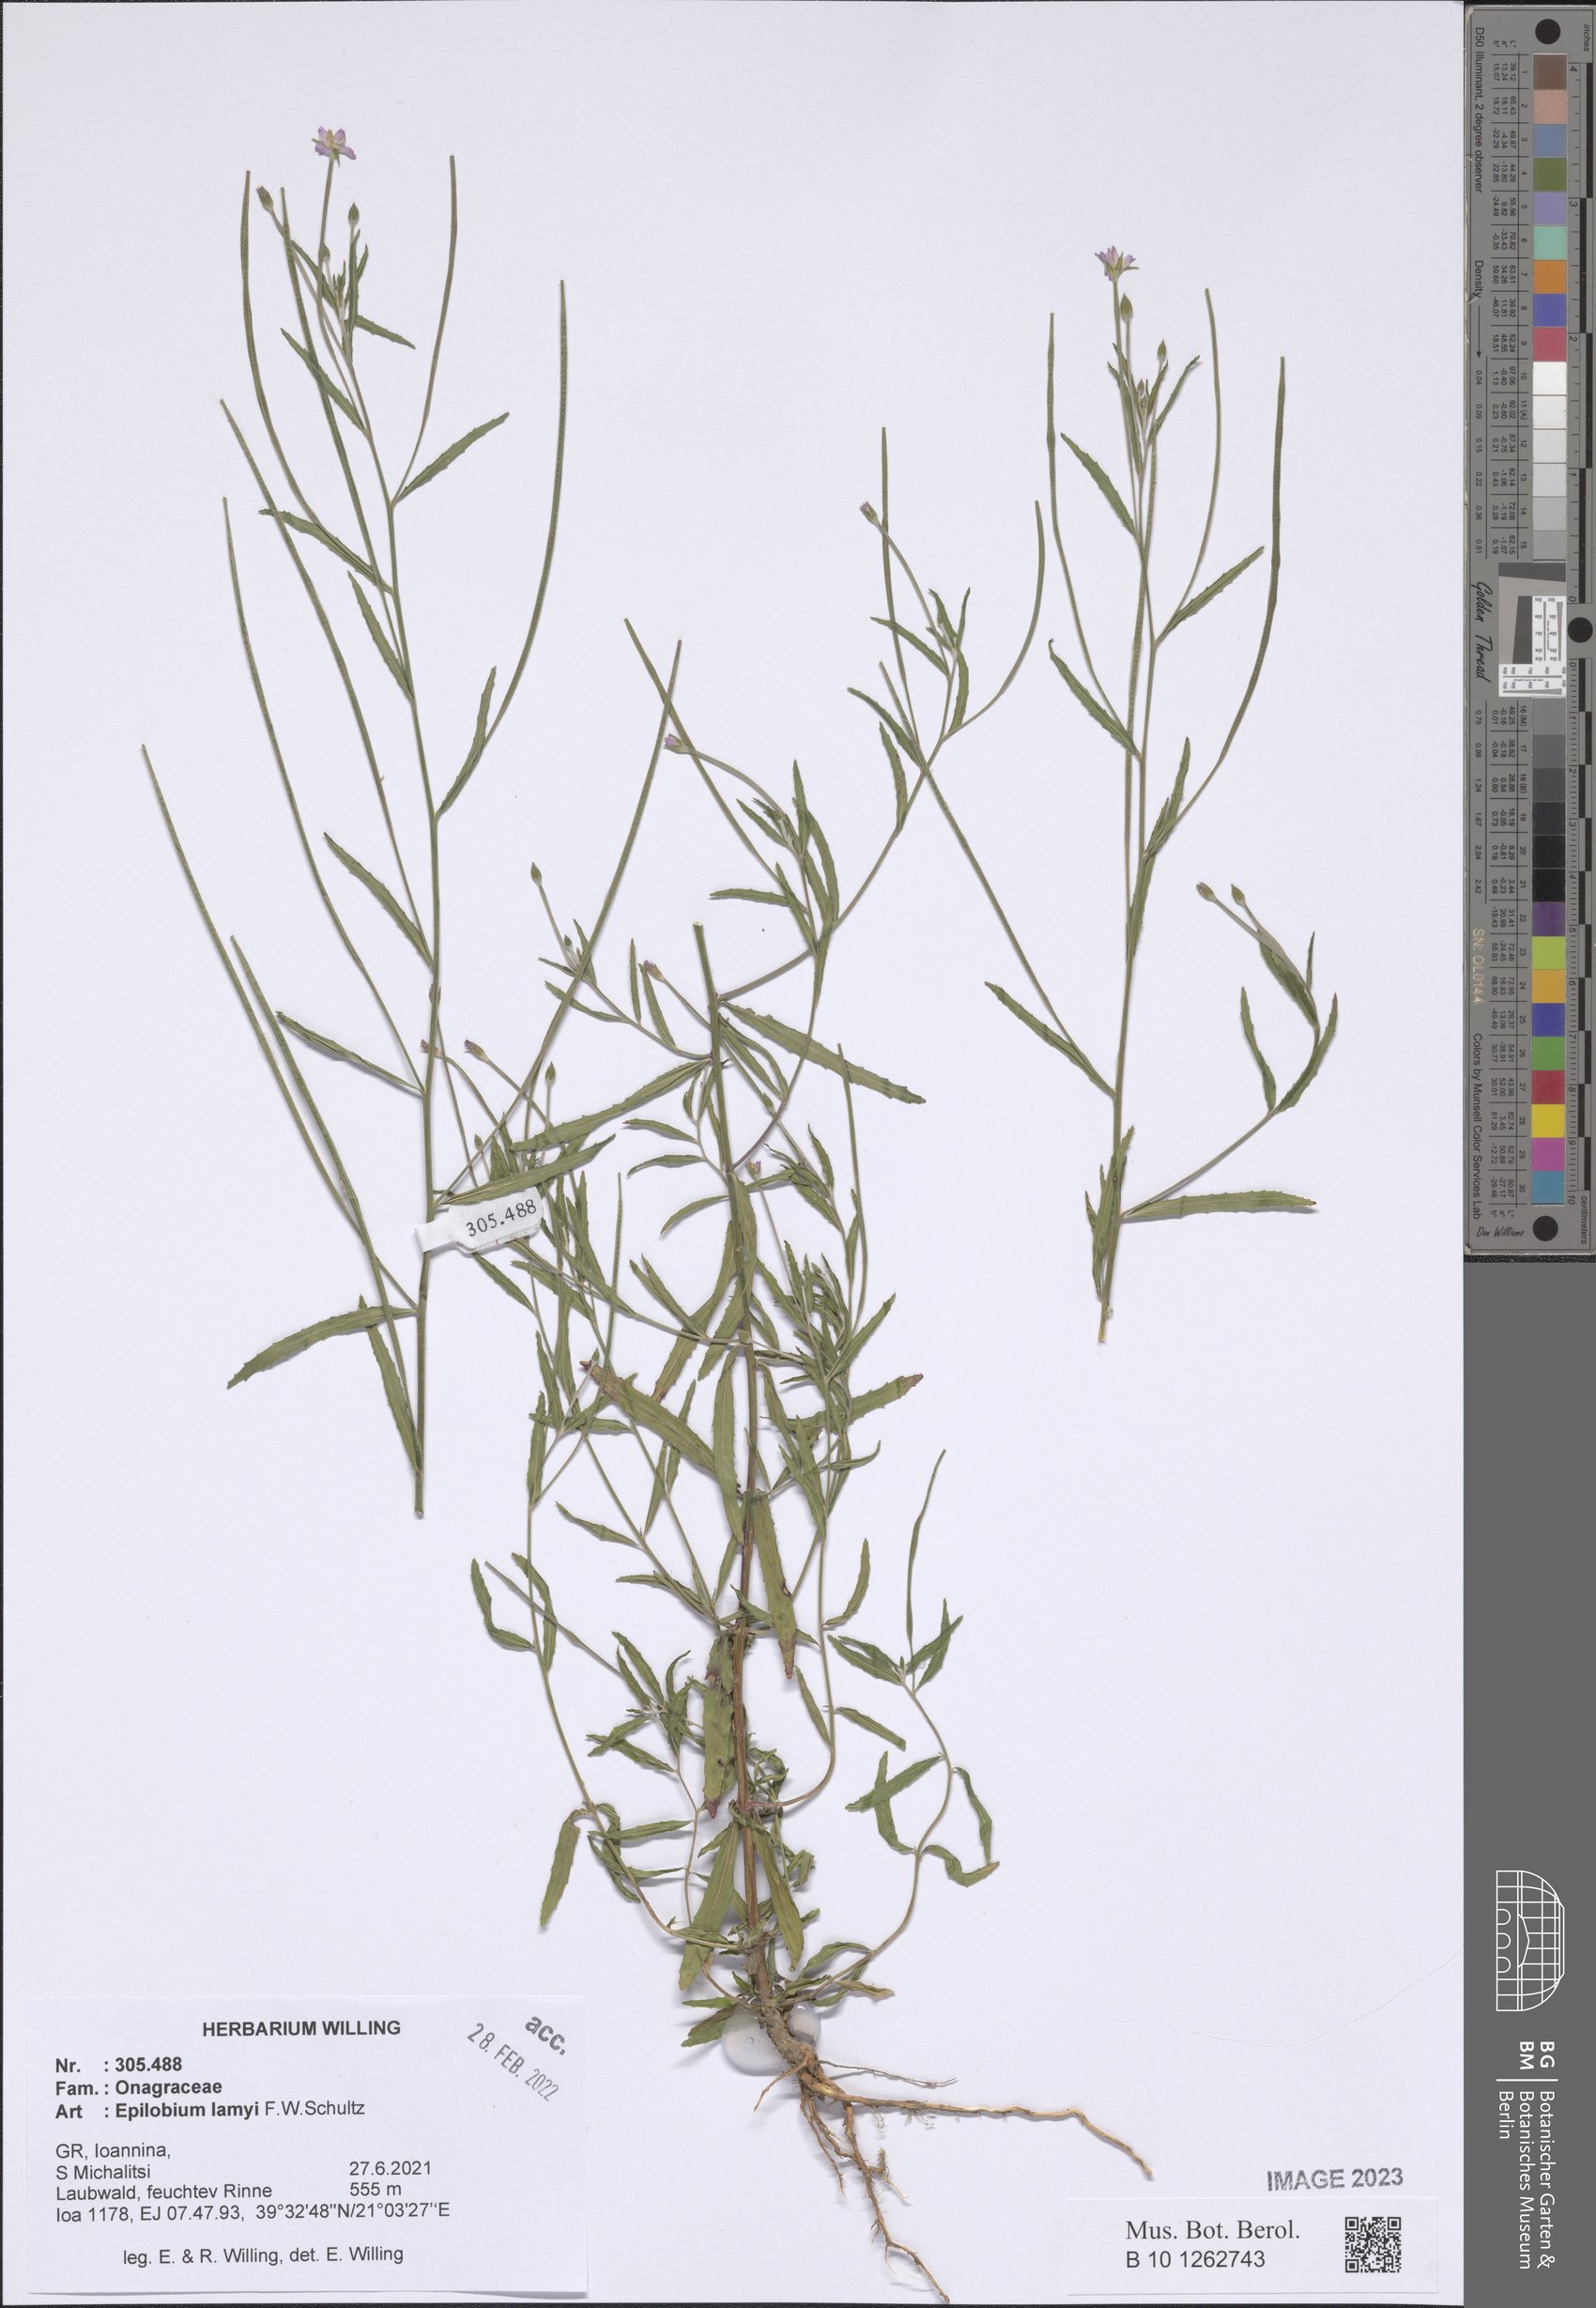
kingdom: Plantae
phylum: Tracheophyta
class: Magnoliopsida
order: Myrtales
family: Onagraceae
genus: Epilobium
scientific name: Epilobium lamyi
